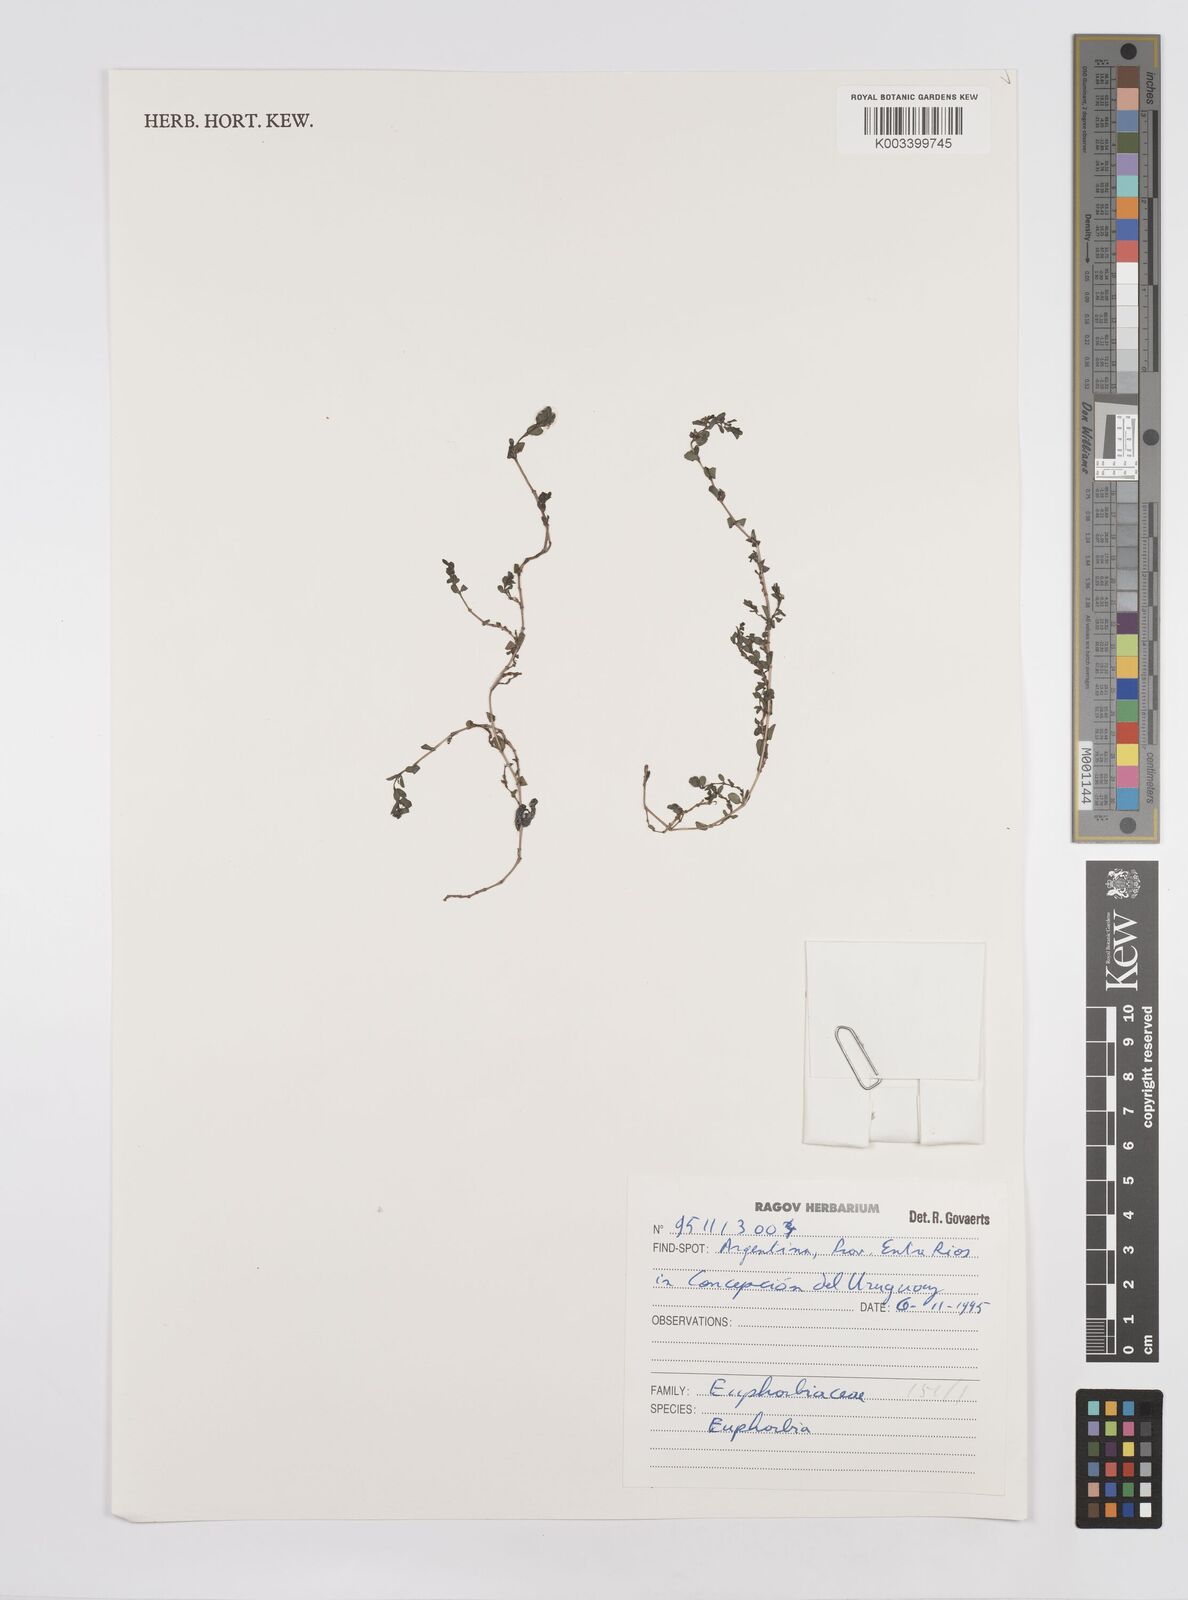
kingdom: Plantae
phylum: Tracheophyta
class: Magnoliopsida
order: Malpighiales
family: Euphorbiaceae
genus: Euphorbia
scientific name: Euphorbia
